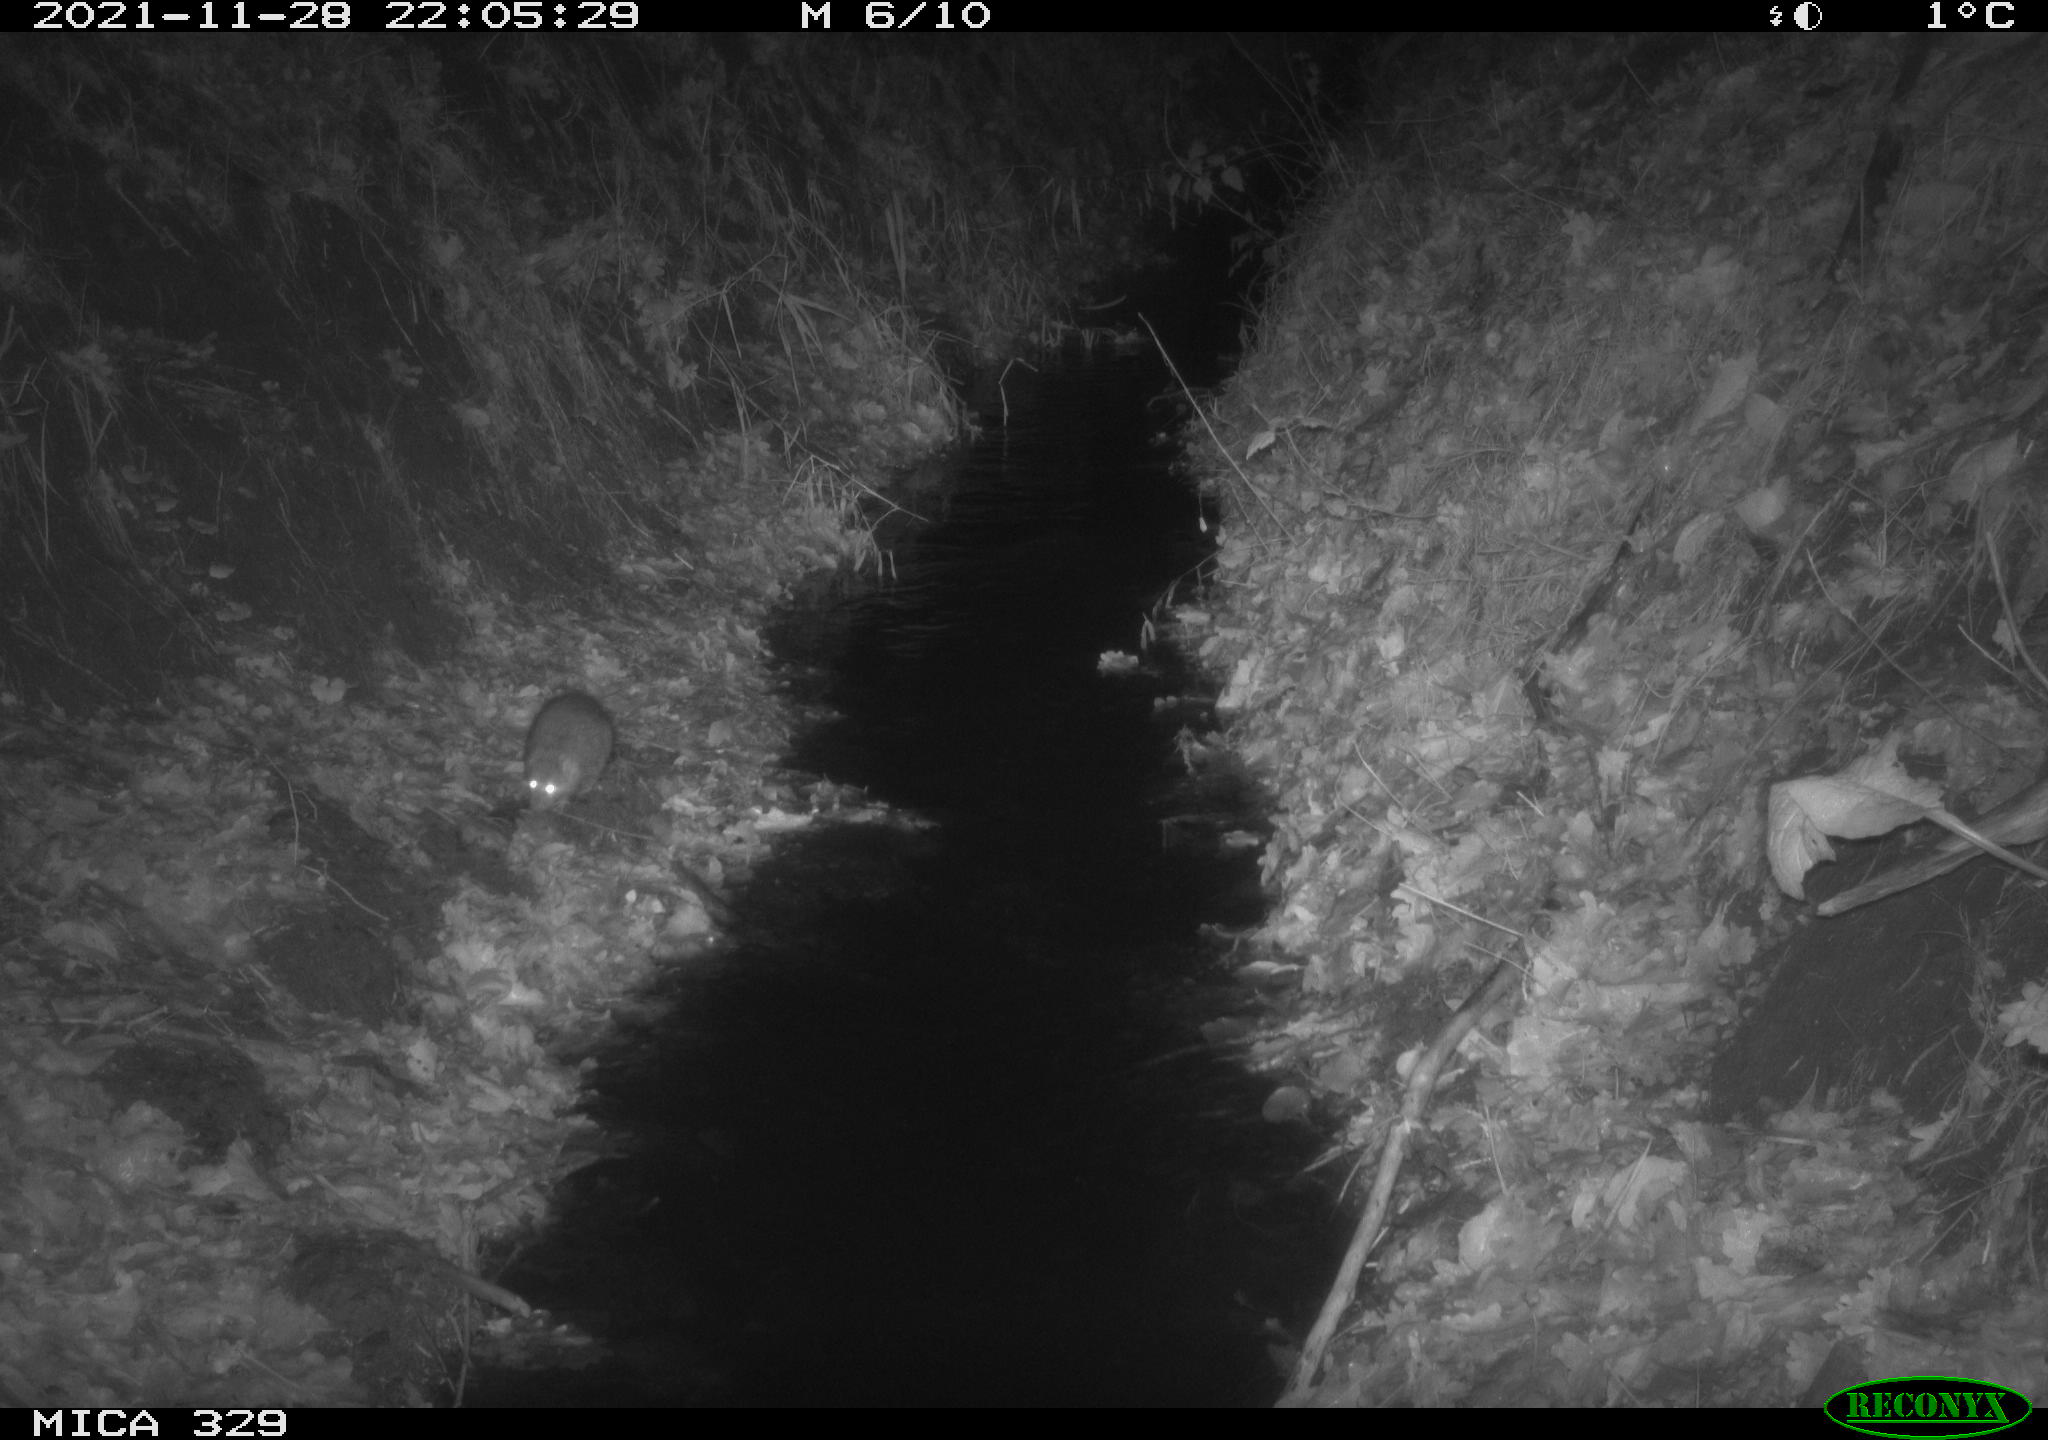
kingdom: Animalia
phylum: Chordata
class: Mammalia
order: Rodentia
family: Muridae
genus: Rattus
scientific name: Rattus norvegicus
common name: Brown rat
